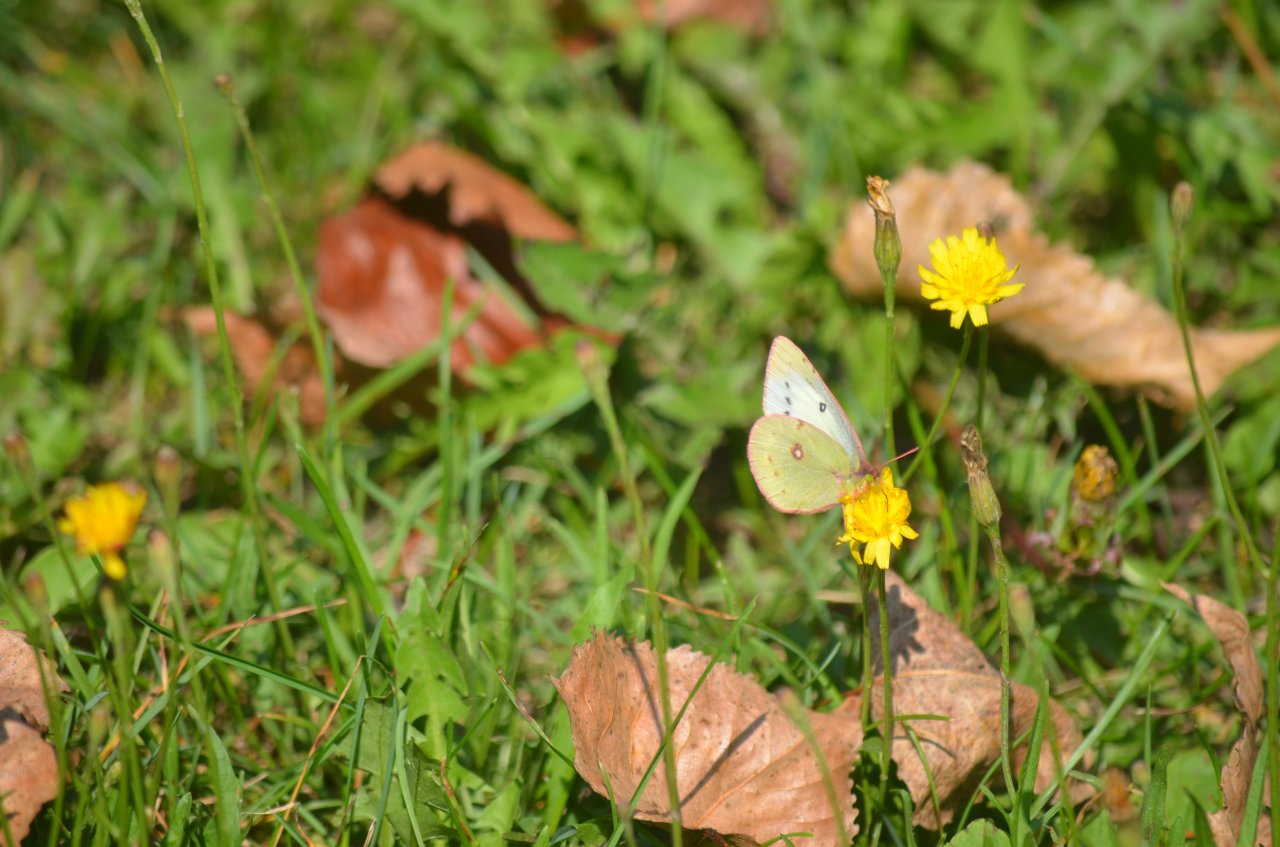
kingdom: Animalia
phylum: Arthropoda
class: Insecta
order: Lepidoptera
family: Pieridae
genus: Colias
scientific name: Colias philodice
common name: Clouded Sulphur
